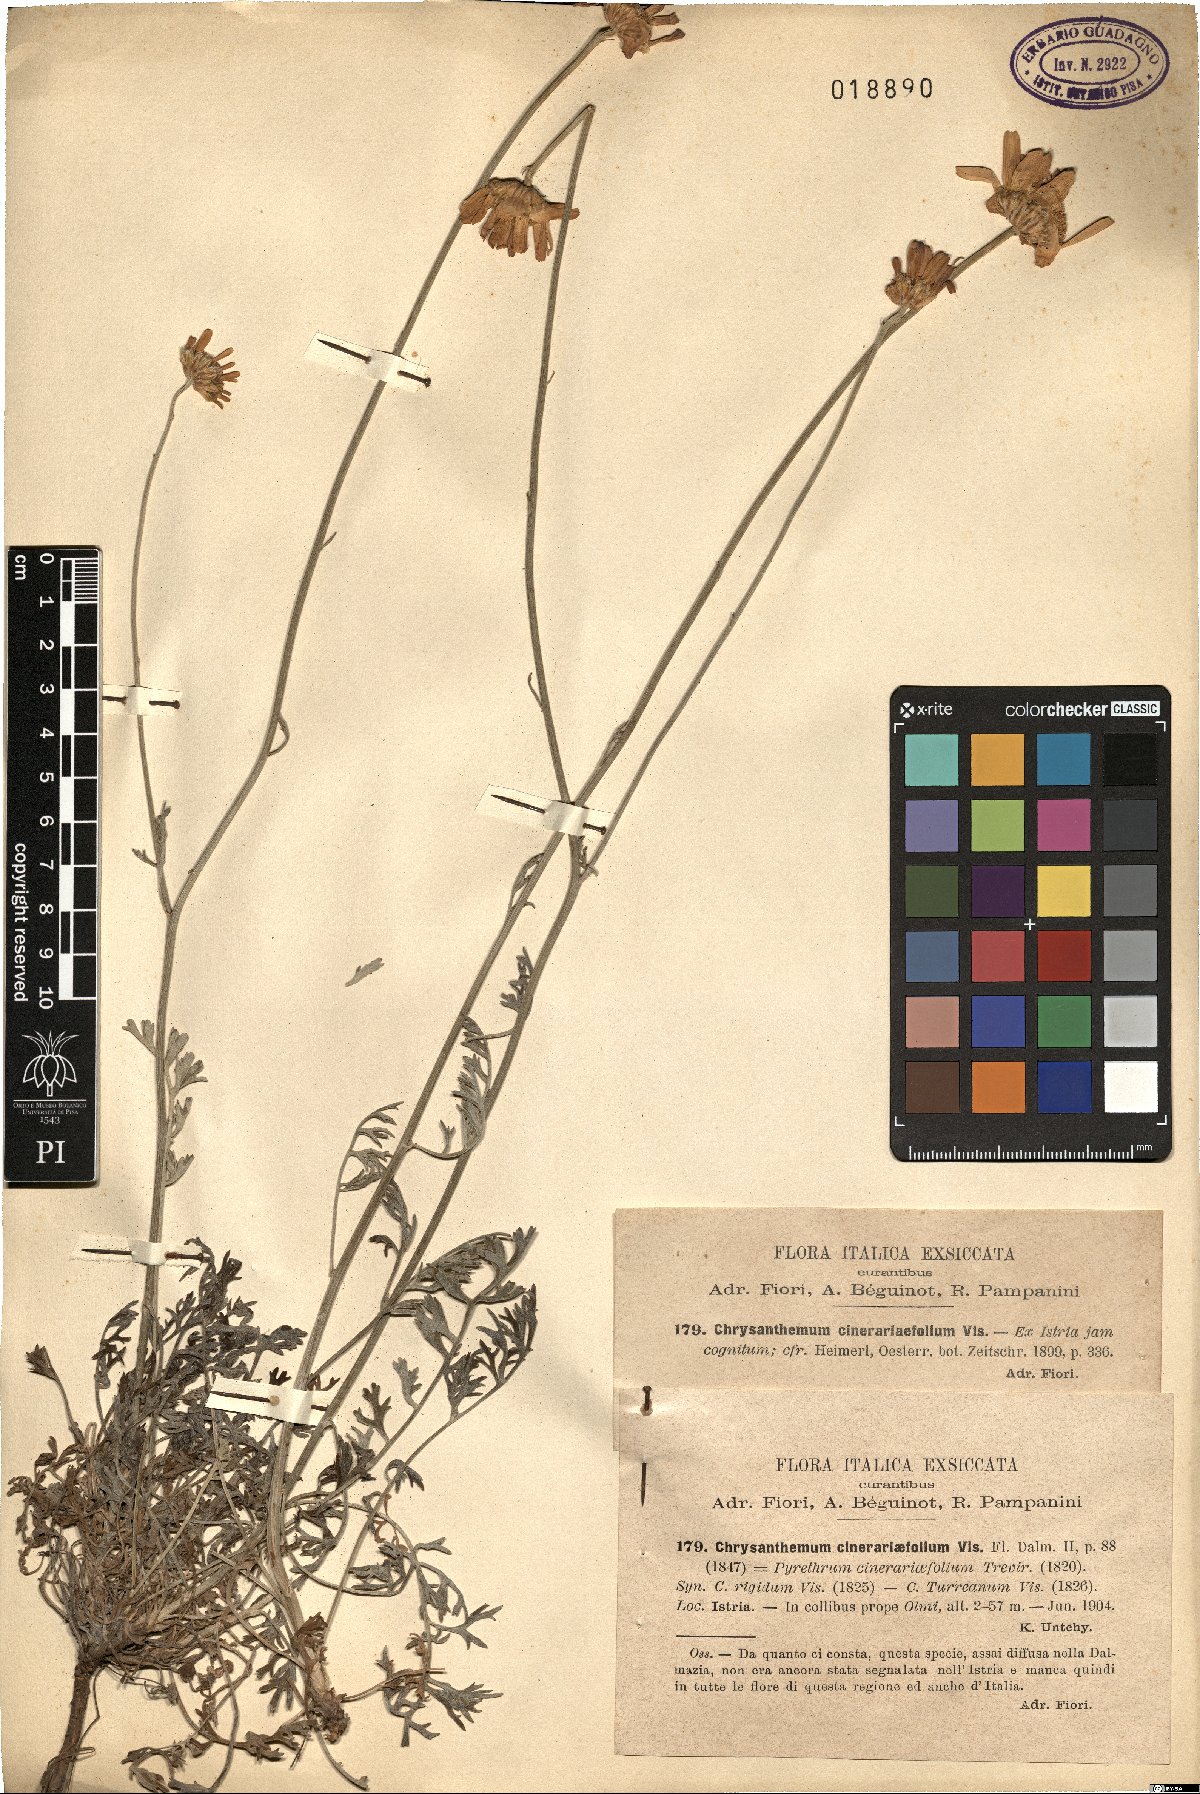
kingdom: Plantae
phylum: Tracheophyta
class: Magnoliopsida
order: Asterales
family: Asteraceae
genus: Tanacetum
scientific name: Tanacetum cinerariifolium
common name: Dalmatian pyrethrum
